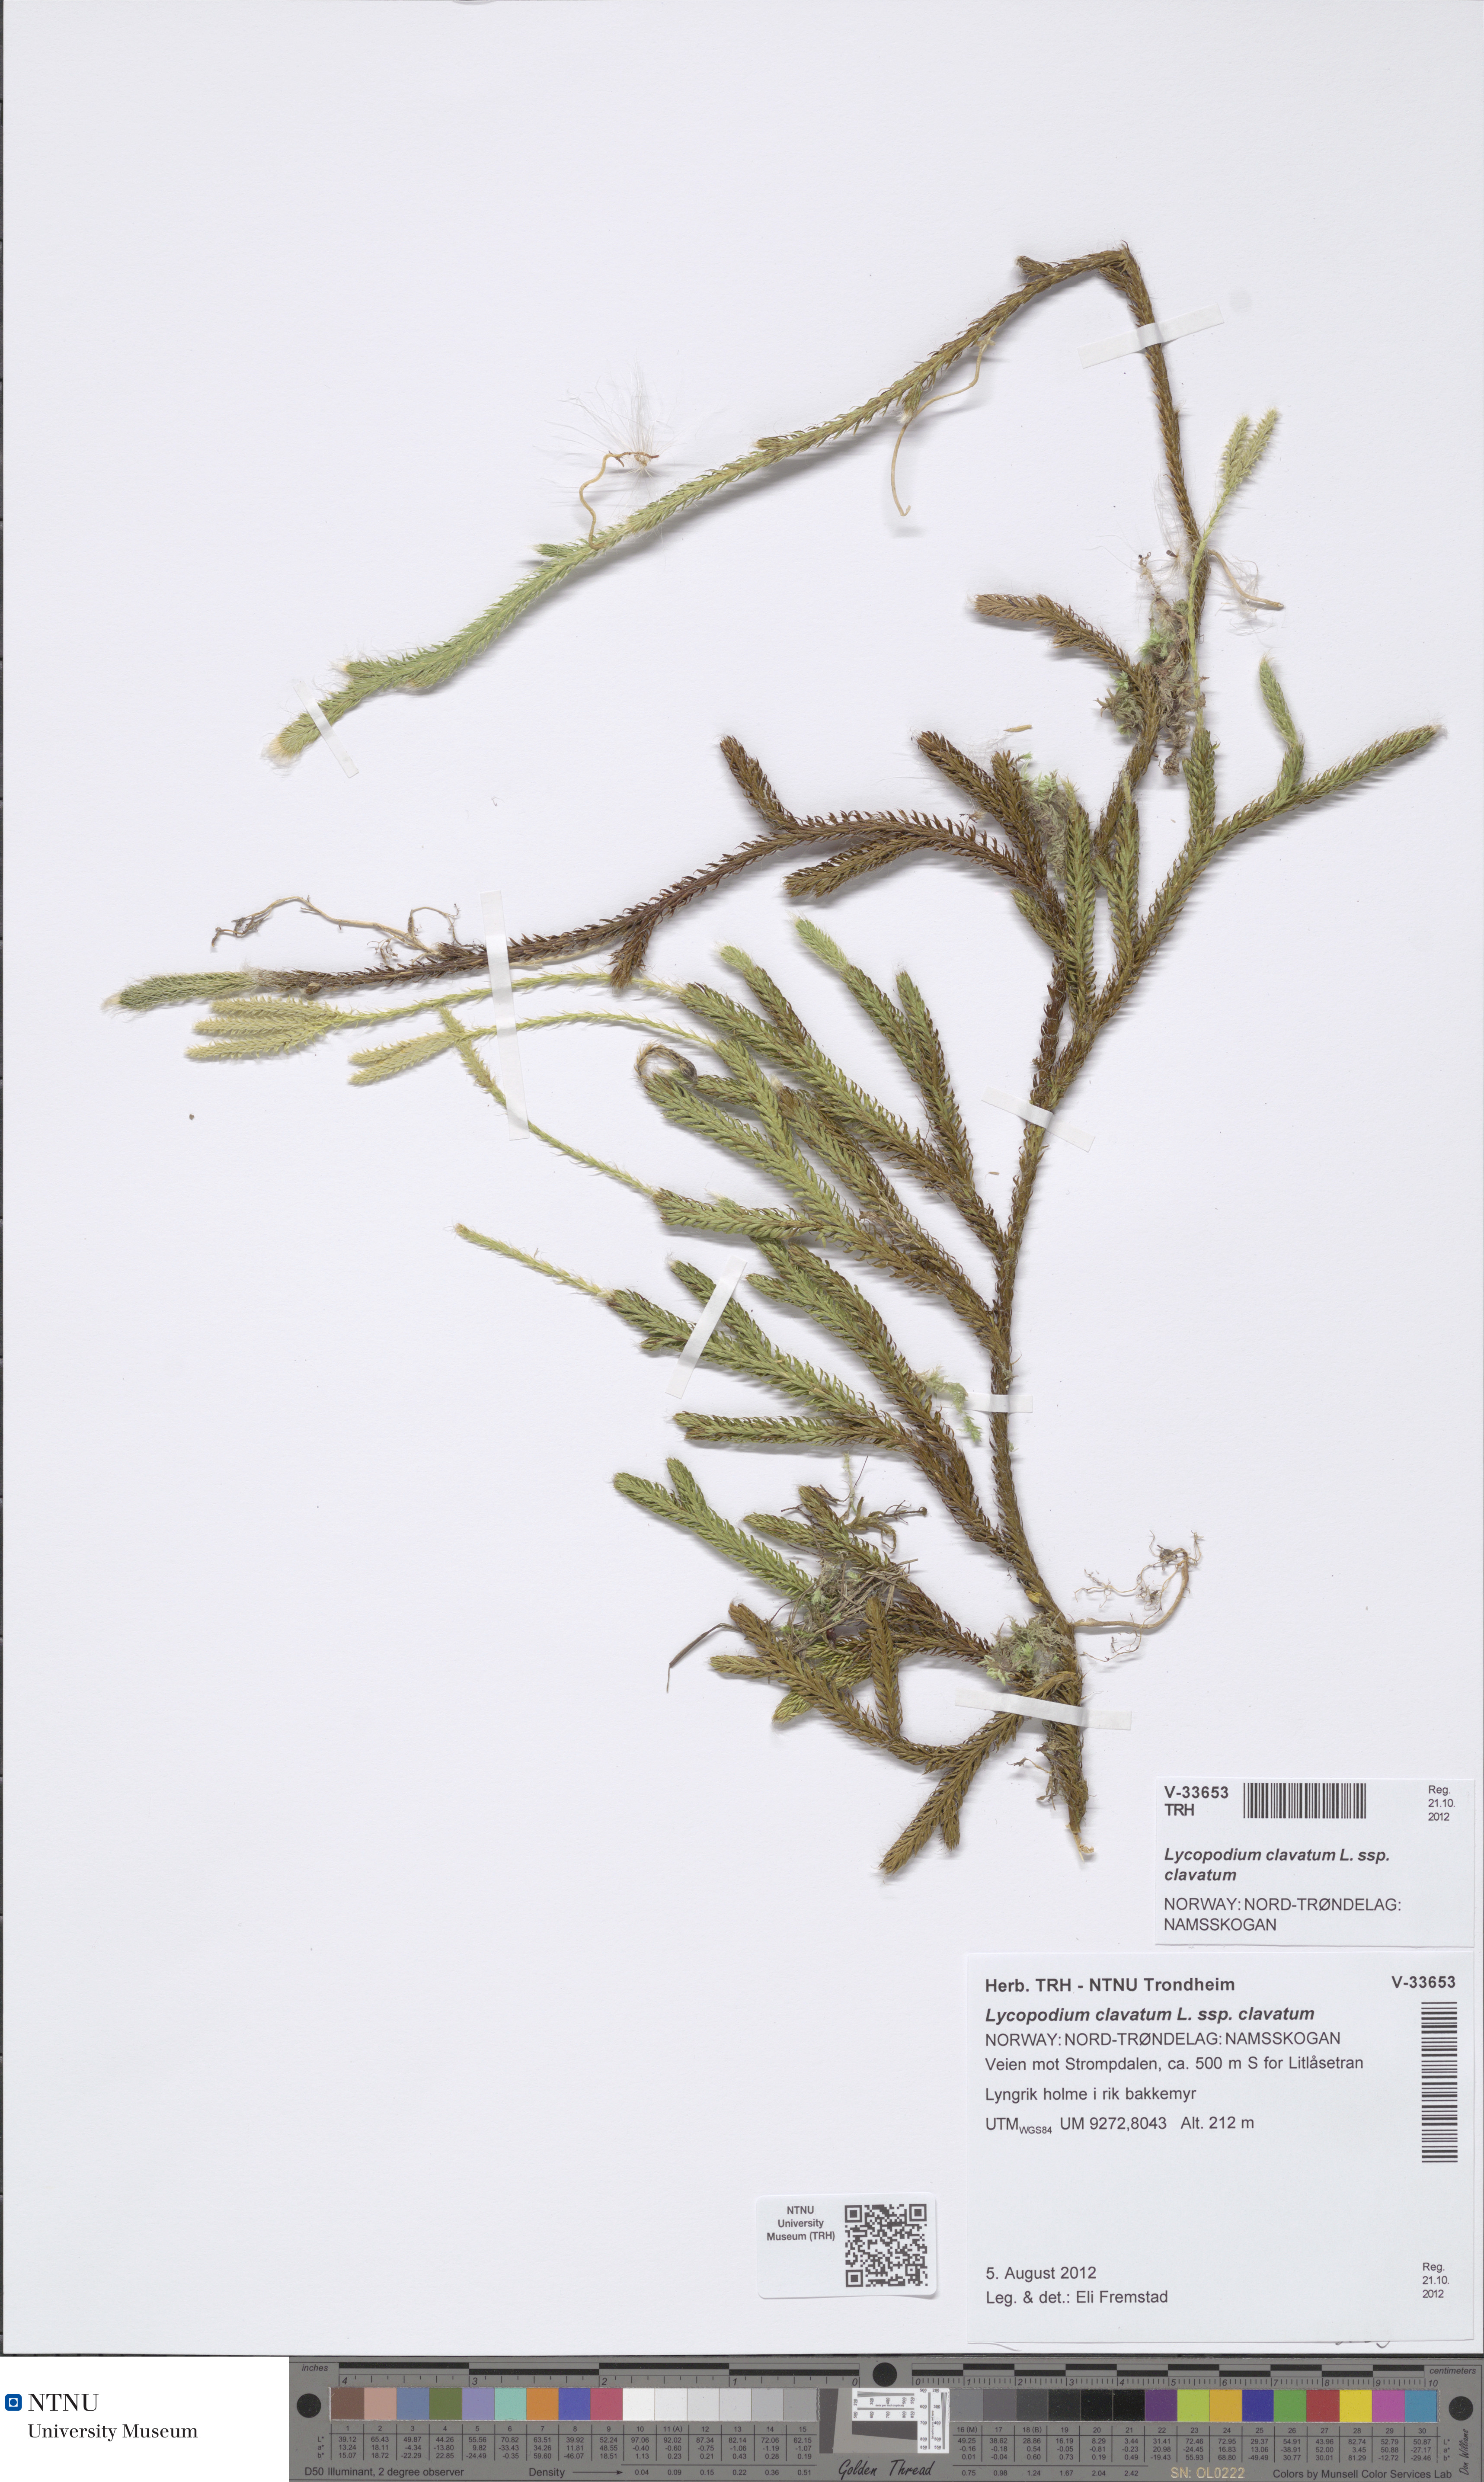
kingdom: Plantae
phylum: Tracheophyta
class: Lycopodiopsida
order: Lycopodiales
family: Lycopodiaceae
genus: Lycopodium
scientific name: Lycopodium clavatum
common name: Stag's-horn clubmoss
